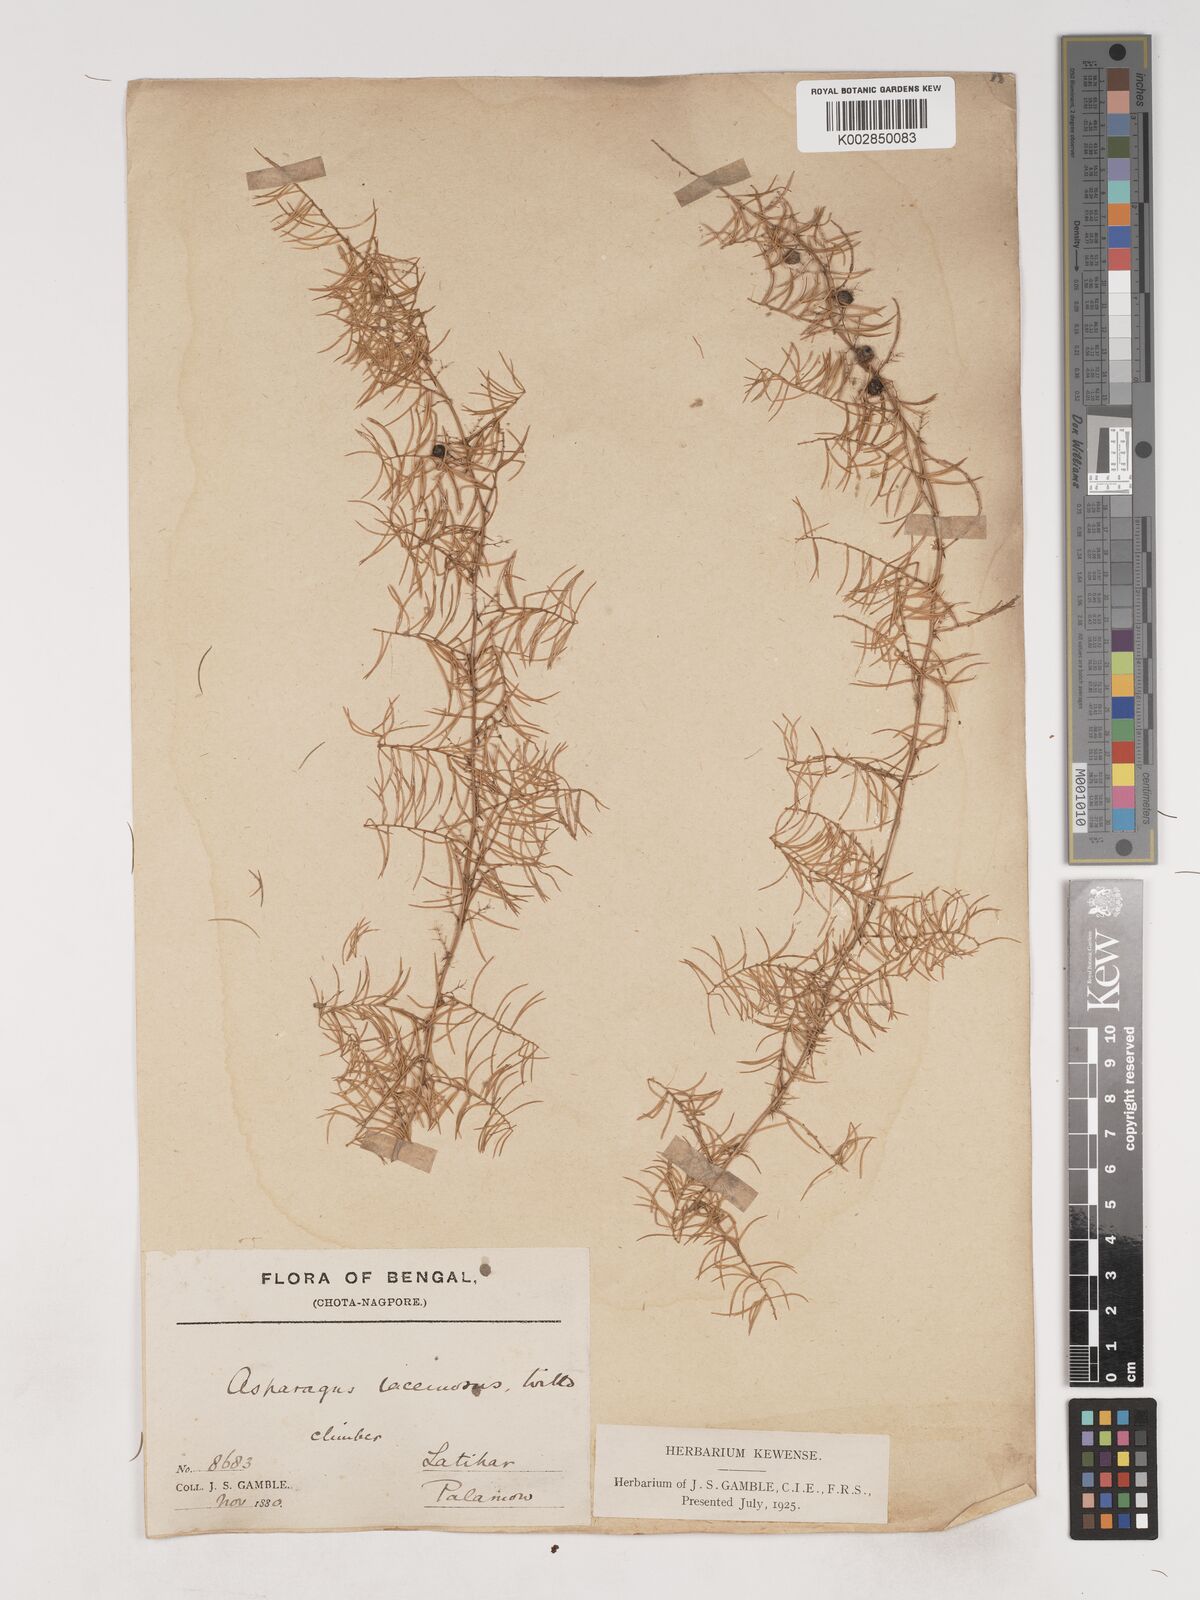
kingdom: Plantae
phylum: Tracheophyta
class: Liliopsida
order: Asparagales
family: Asparagaceae
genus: Asparagus
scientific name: Asparagus racemosus
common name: Asparagus-fern
